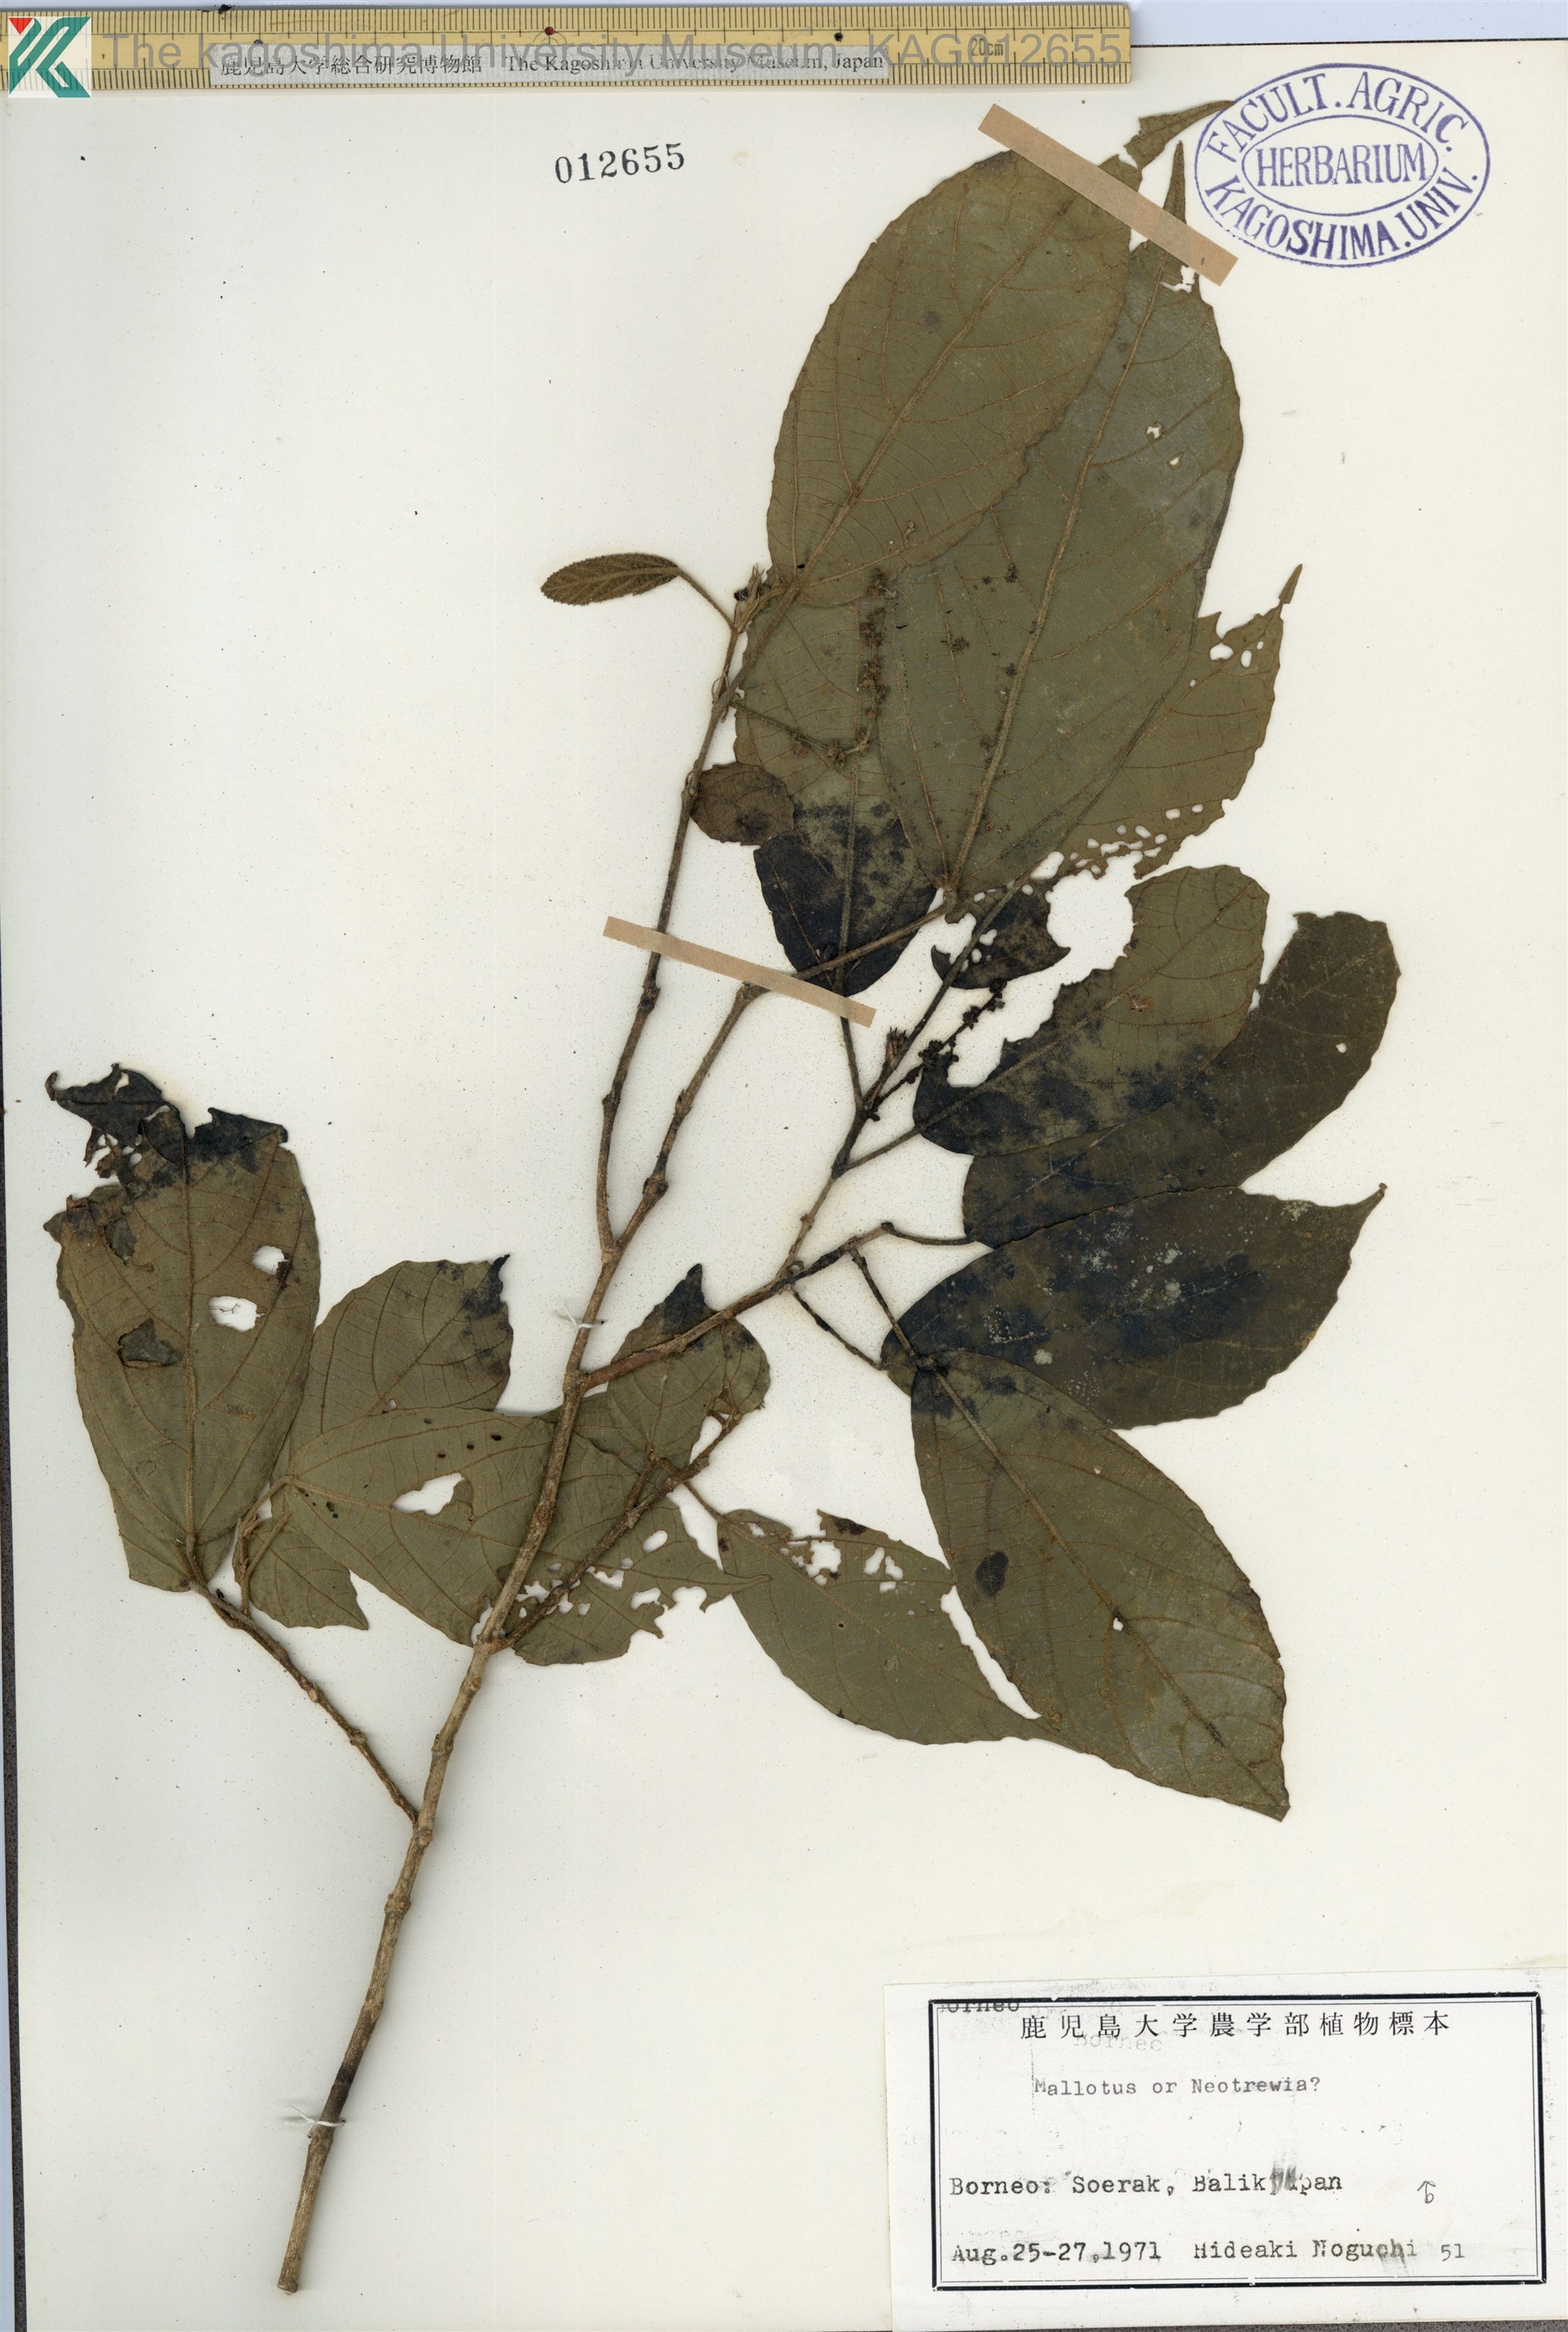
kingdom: Plantae
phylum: Tracheophyta
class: Magnoliopsida
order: Malpighiales
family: Euphorbiaceae
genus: Mallotus
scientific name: Mallotus peltatus
